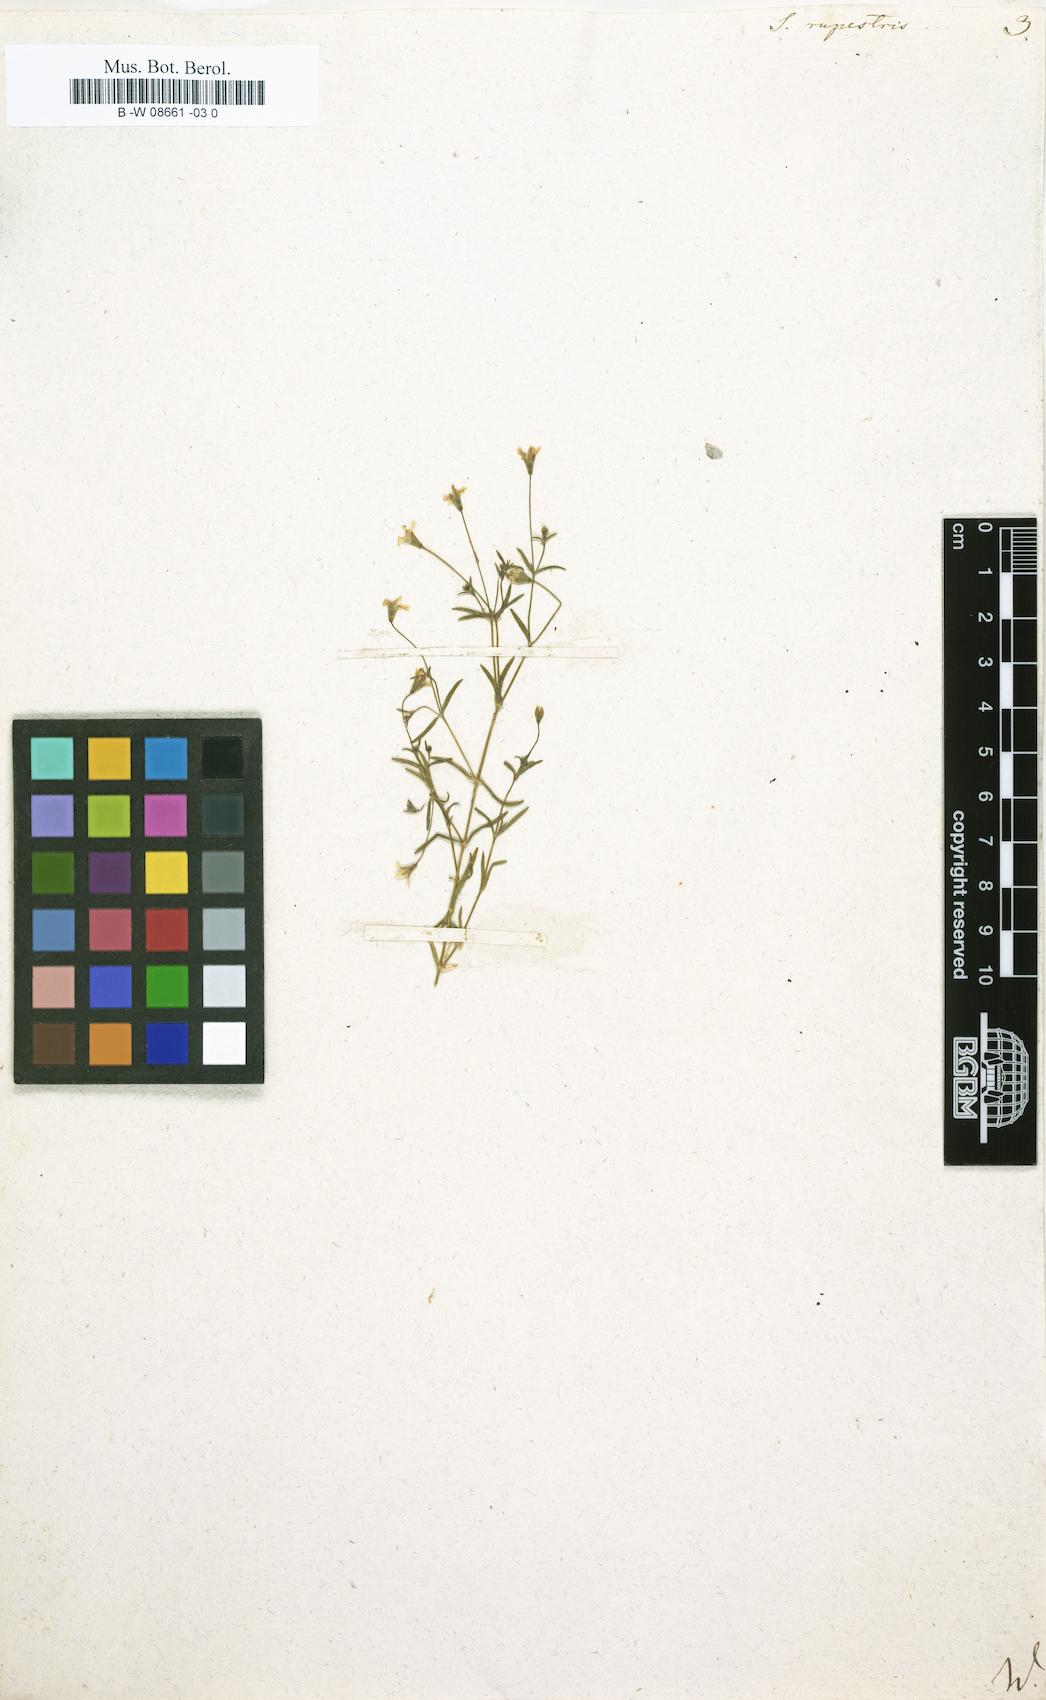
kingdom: Plantae
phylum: Tracheophyta
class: Magnoliopsida
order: Caryophyllales
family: Caryophyllaceae
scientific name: Caryophyllaceae
